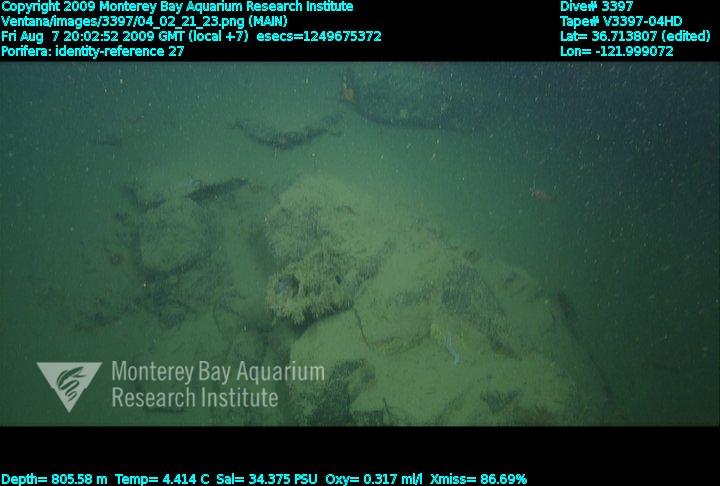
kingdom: Animalia
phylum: Porifera
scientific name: Porifera
